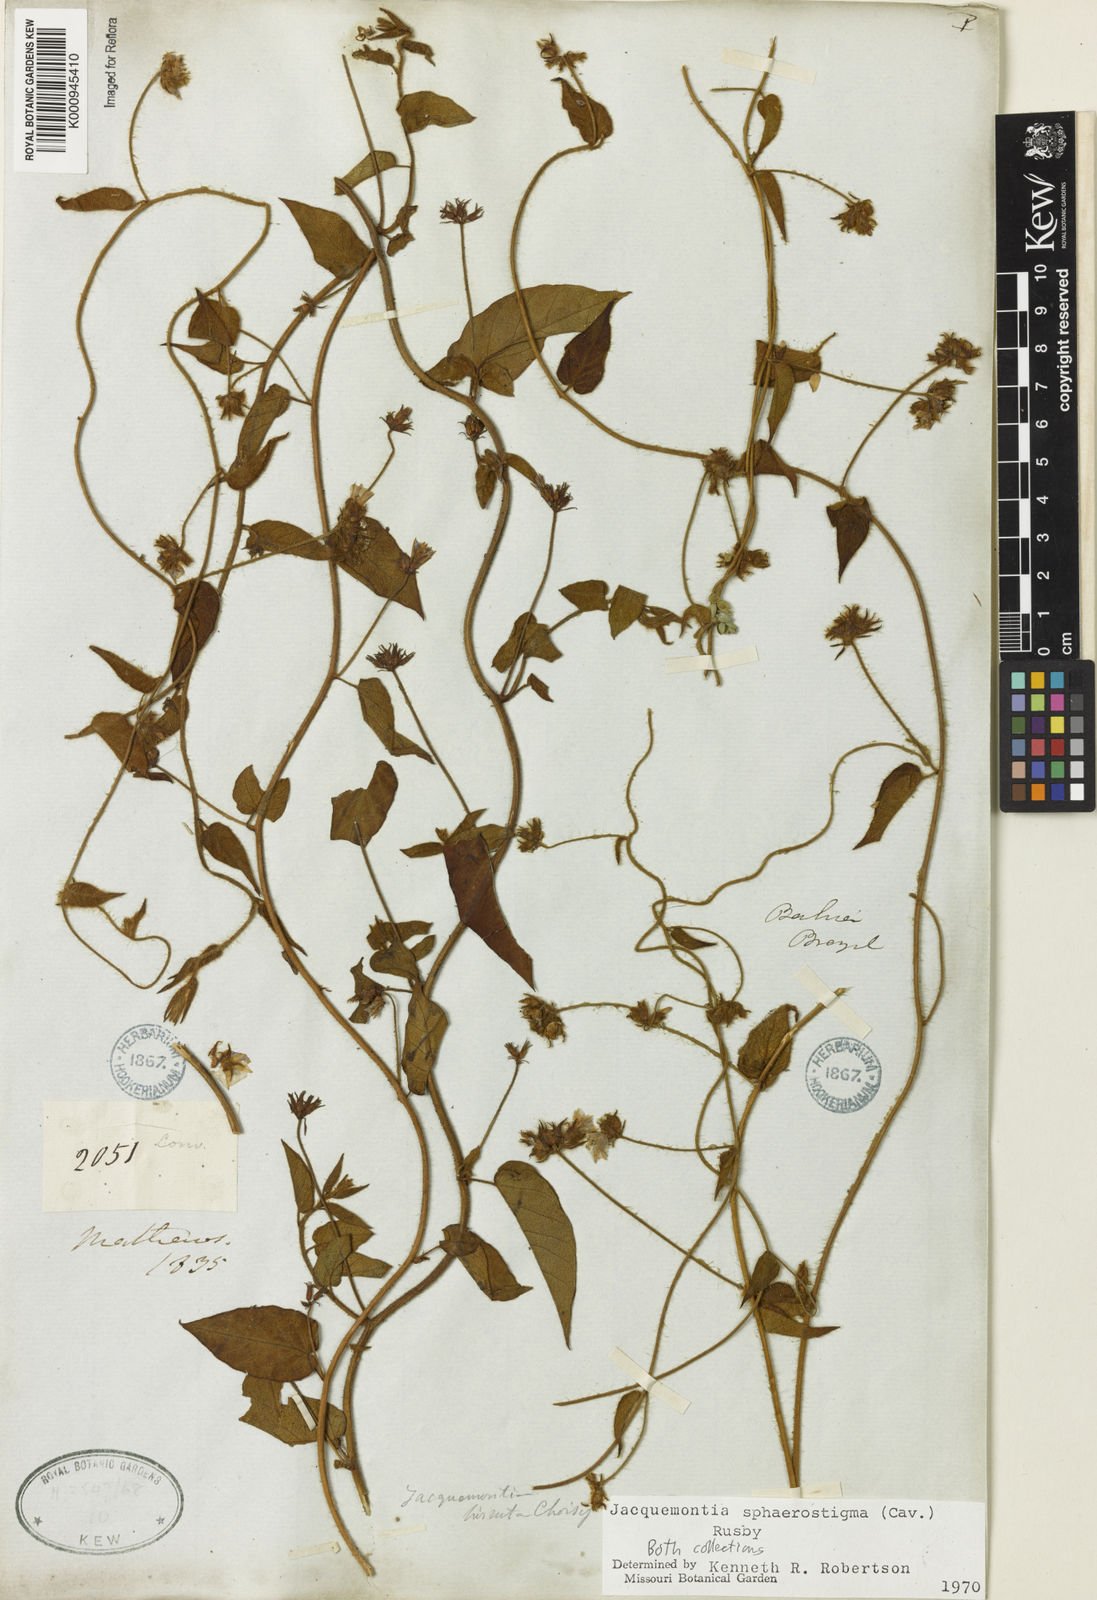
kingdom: Plantae
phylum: Tracheophyta
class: Magnoliopsida
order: Solanales
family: Convolvulaceae
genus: Jacquemontia
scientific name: Jacquemontia sphaerostigma
